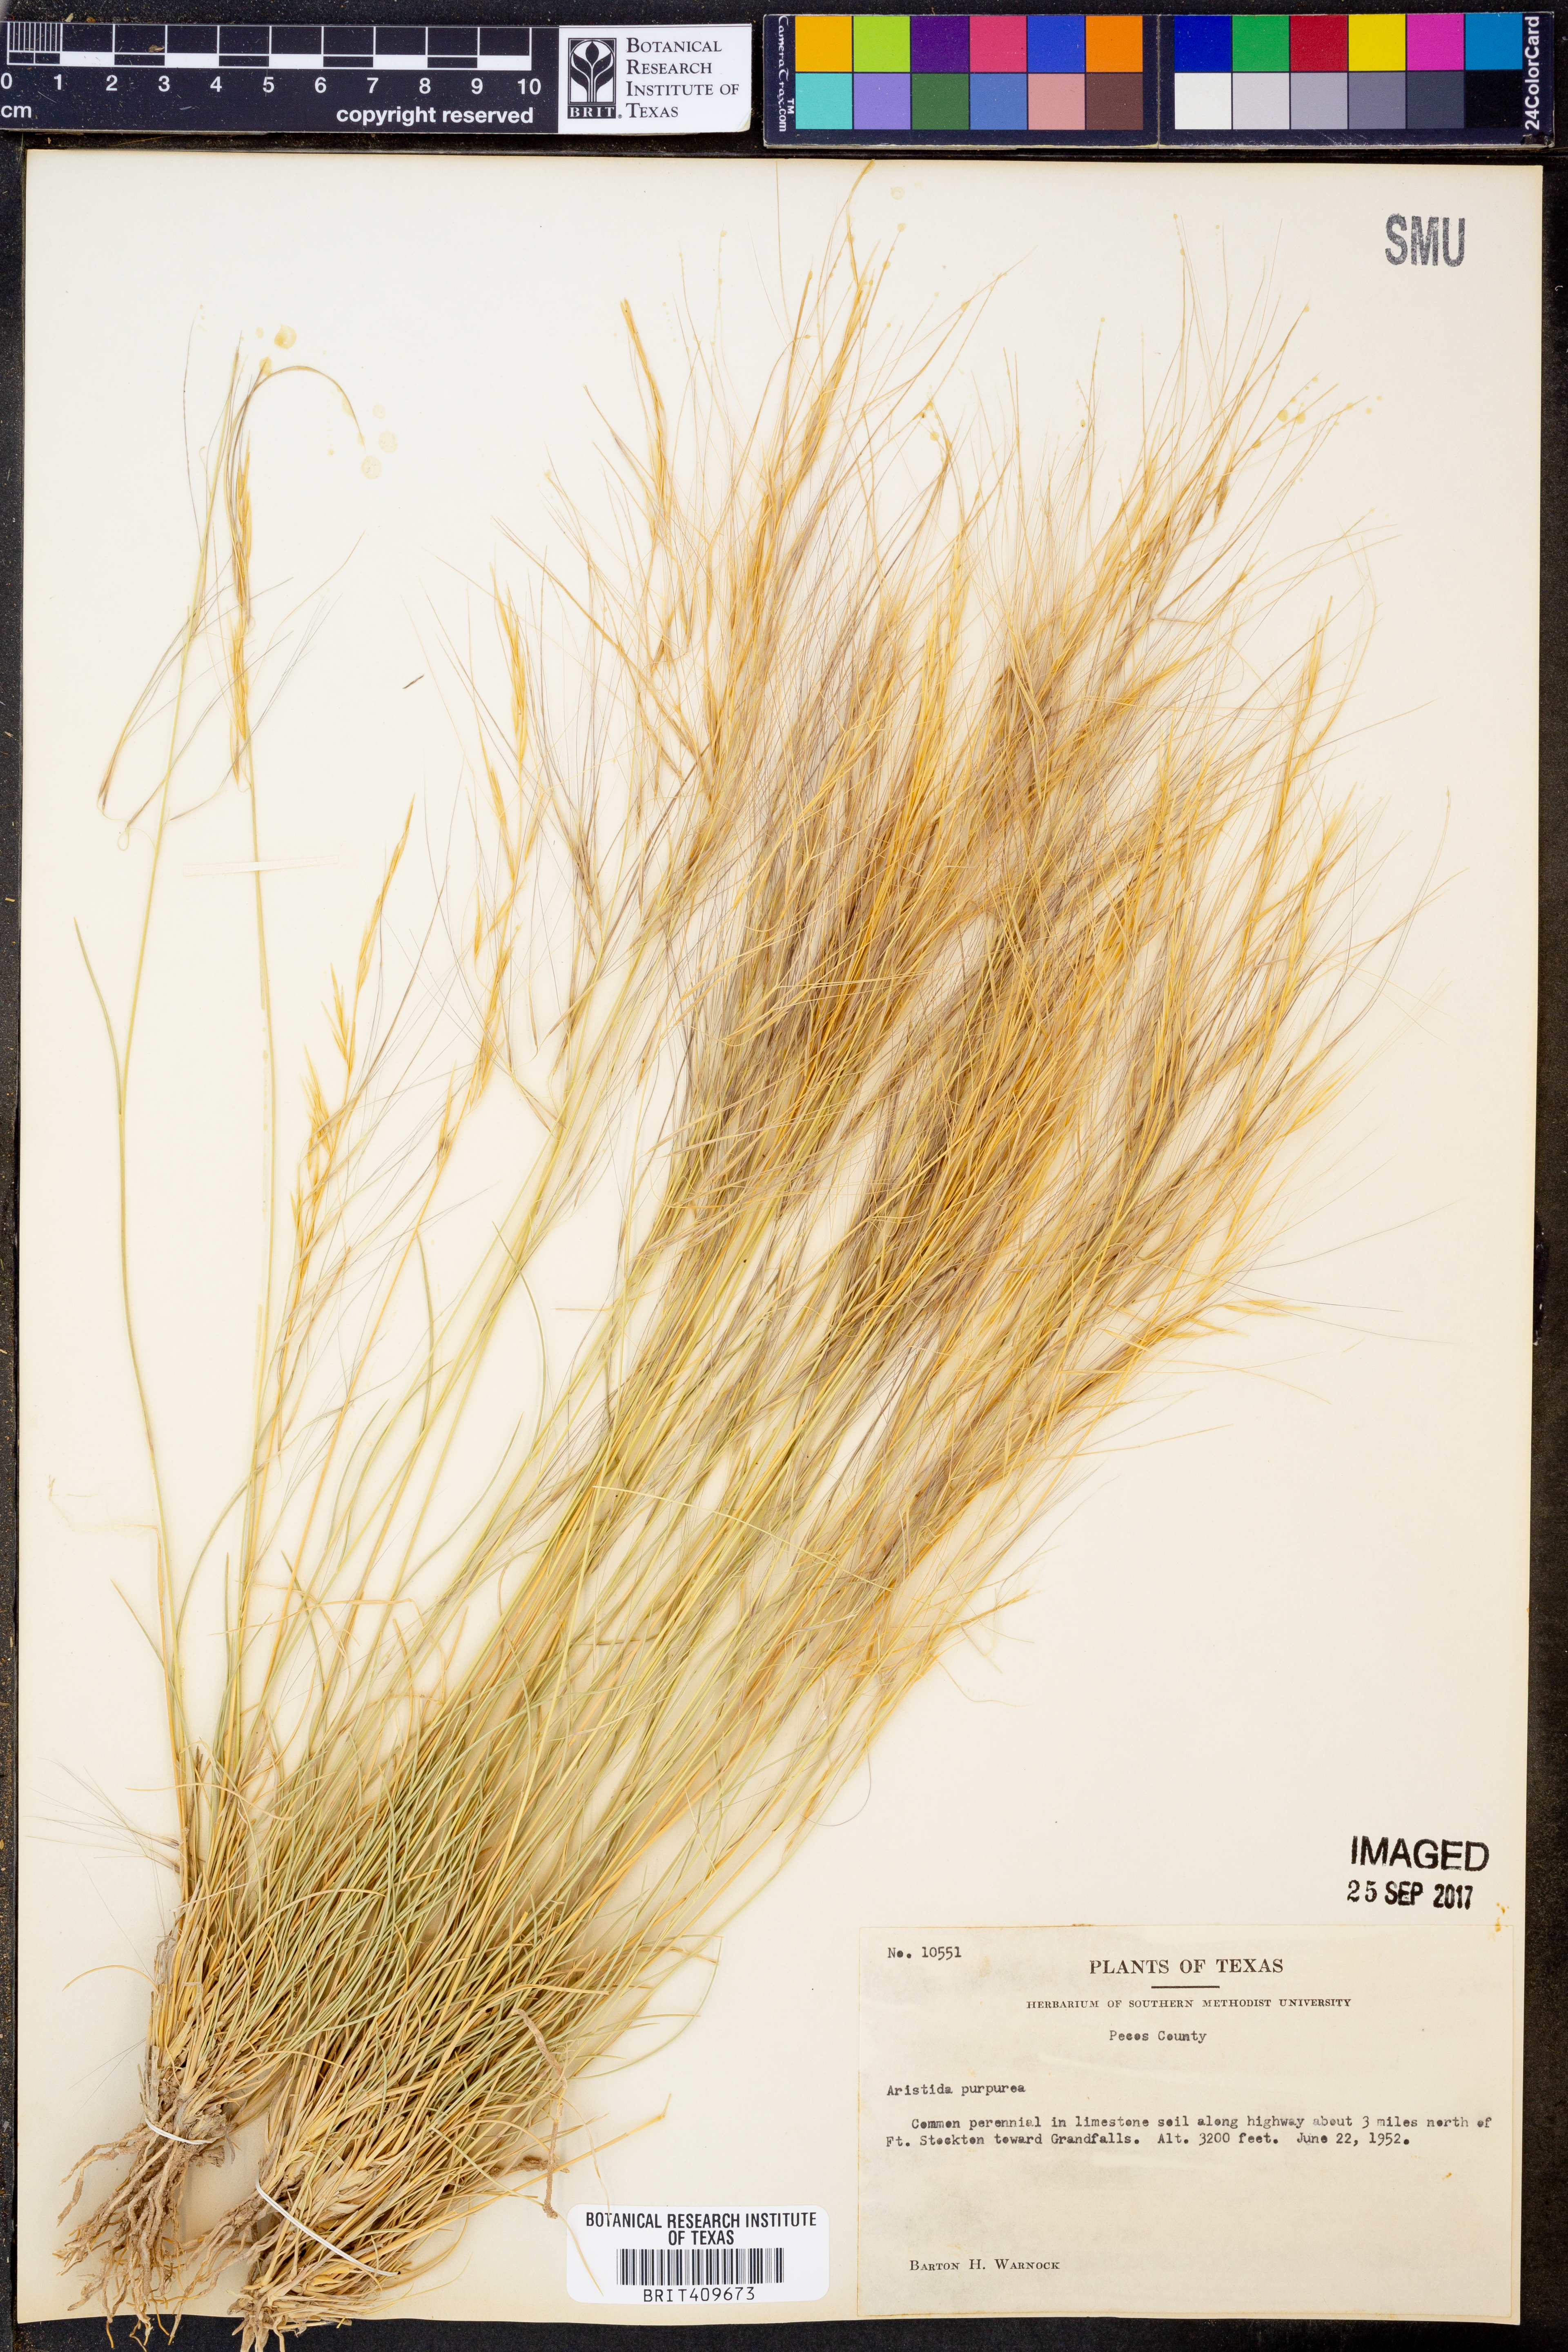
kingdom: Plantae
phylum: Tracheophyta
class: Liliopsida
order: Poales
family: Poaceae
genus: Aristida
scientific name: Aristida purpurea
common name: Purple threeawn
